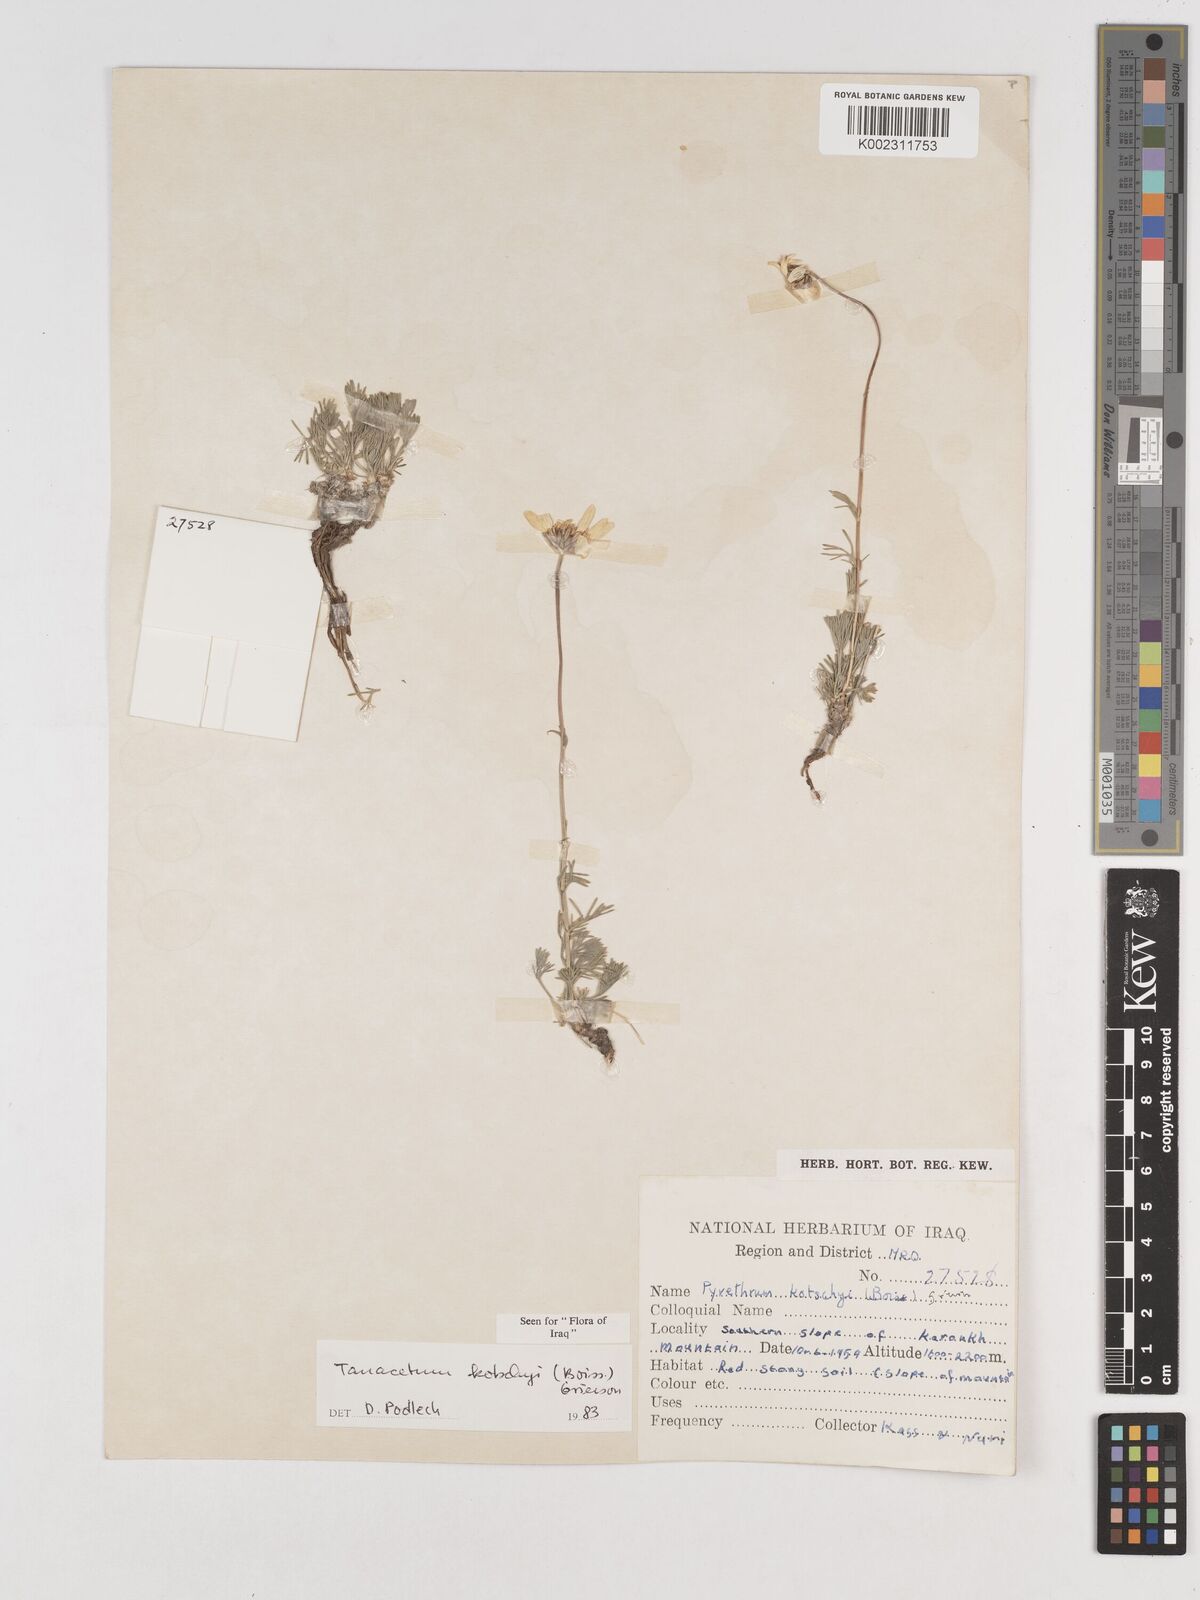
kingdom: Plantae
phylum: Tracheophyta
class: Magnoliopsida
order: Asterales
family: Asteraceae
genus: Tanacetum
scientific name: Tanacetum polycephalum
